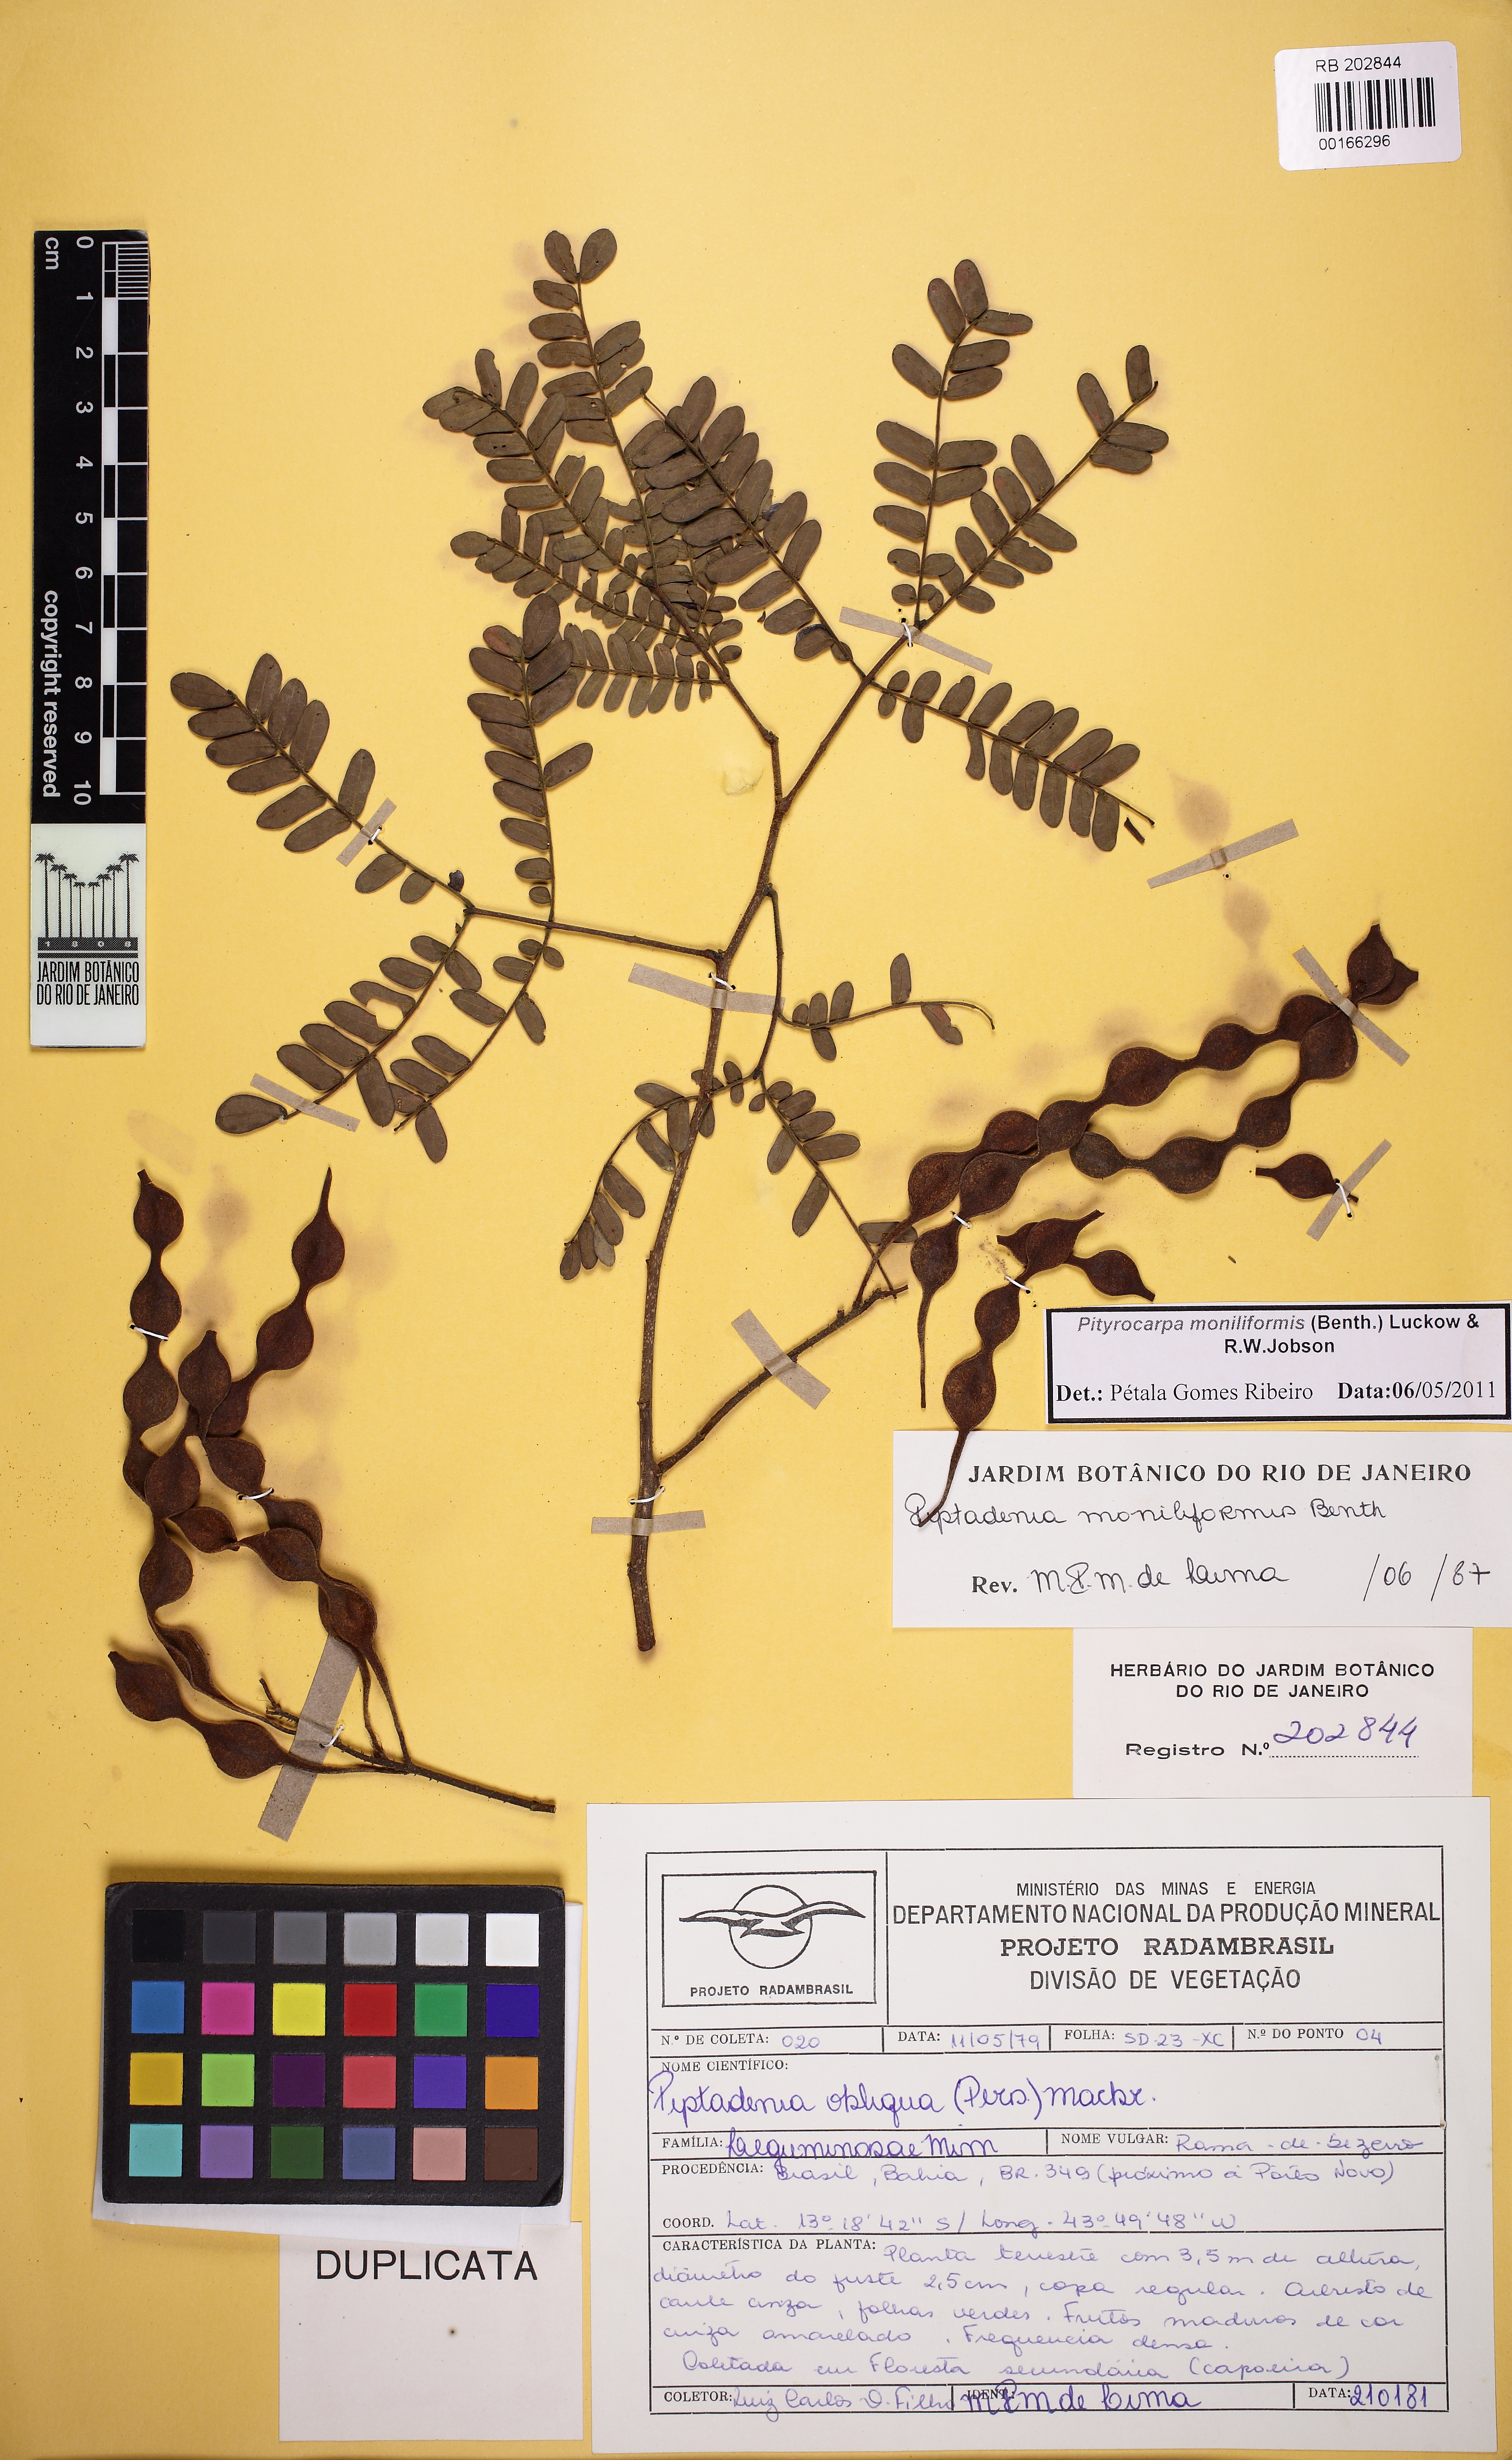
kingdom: Plantae
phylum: Tracheophyta
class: Magnoliopsida
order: Fabales
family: Fabaceae
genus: Pityrocarpa
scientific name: Pityrocarpa moniliformis
